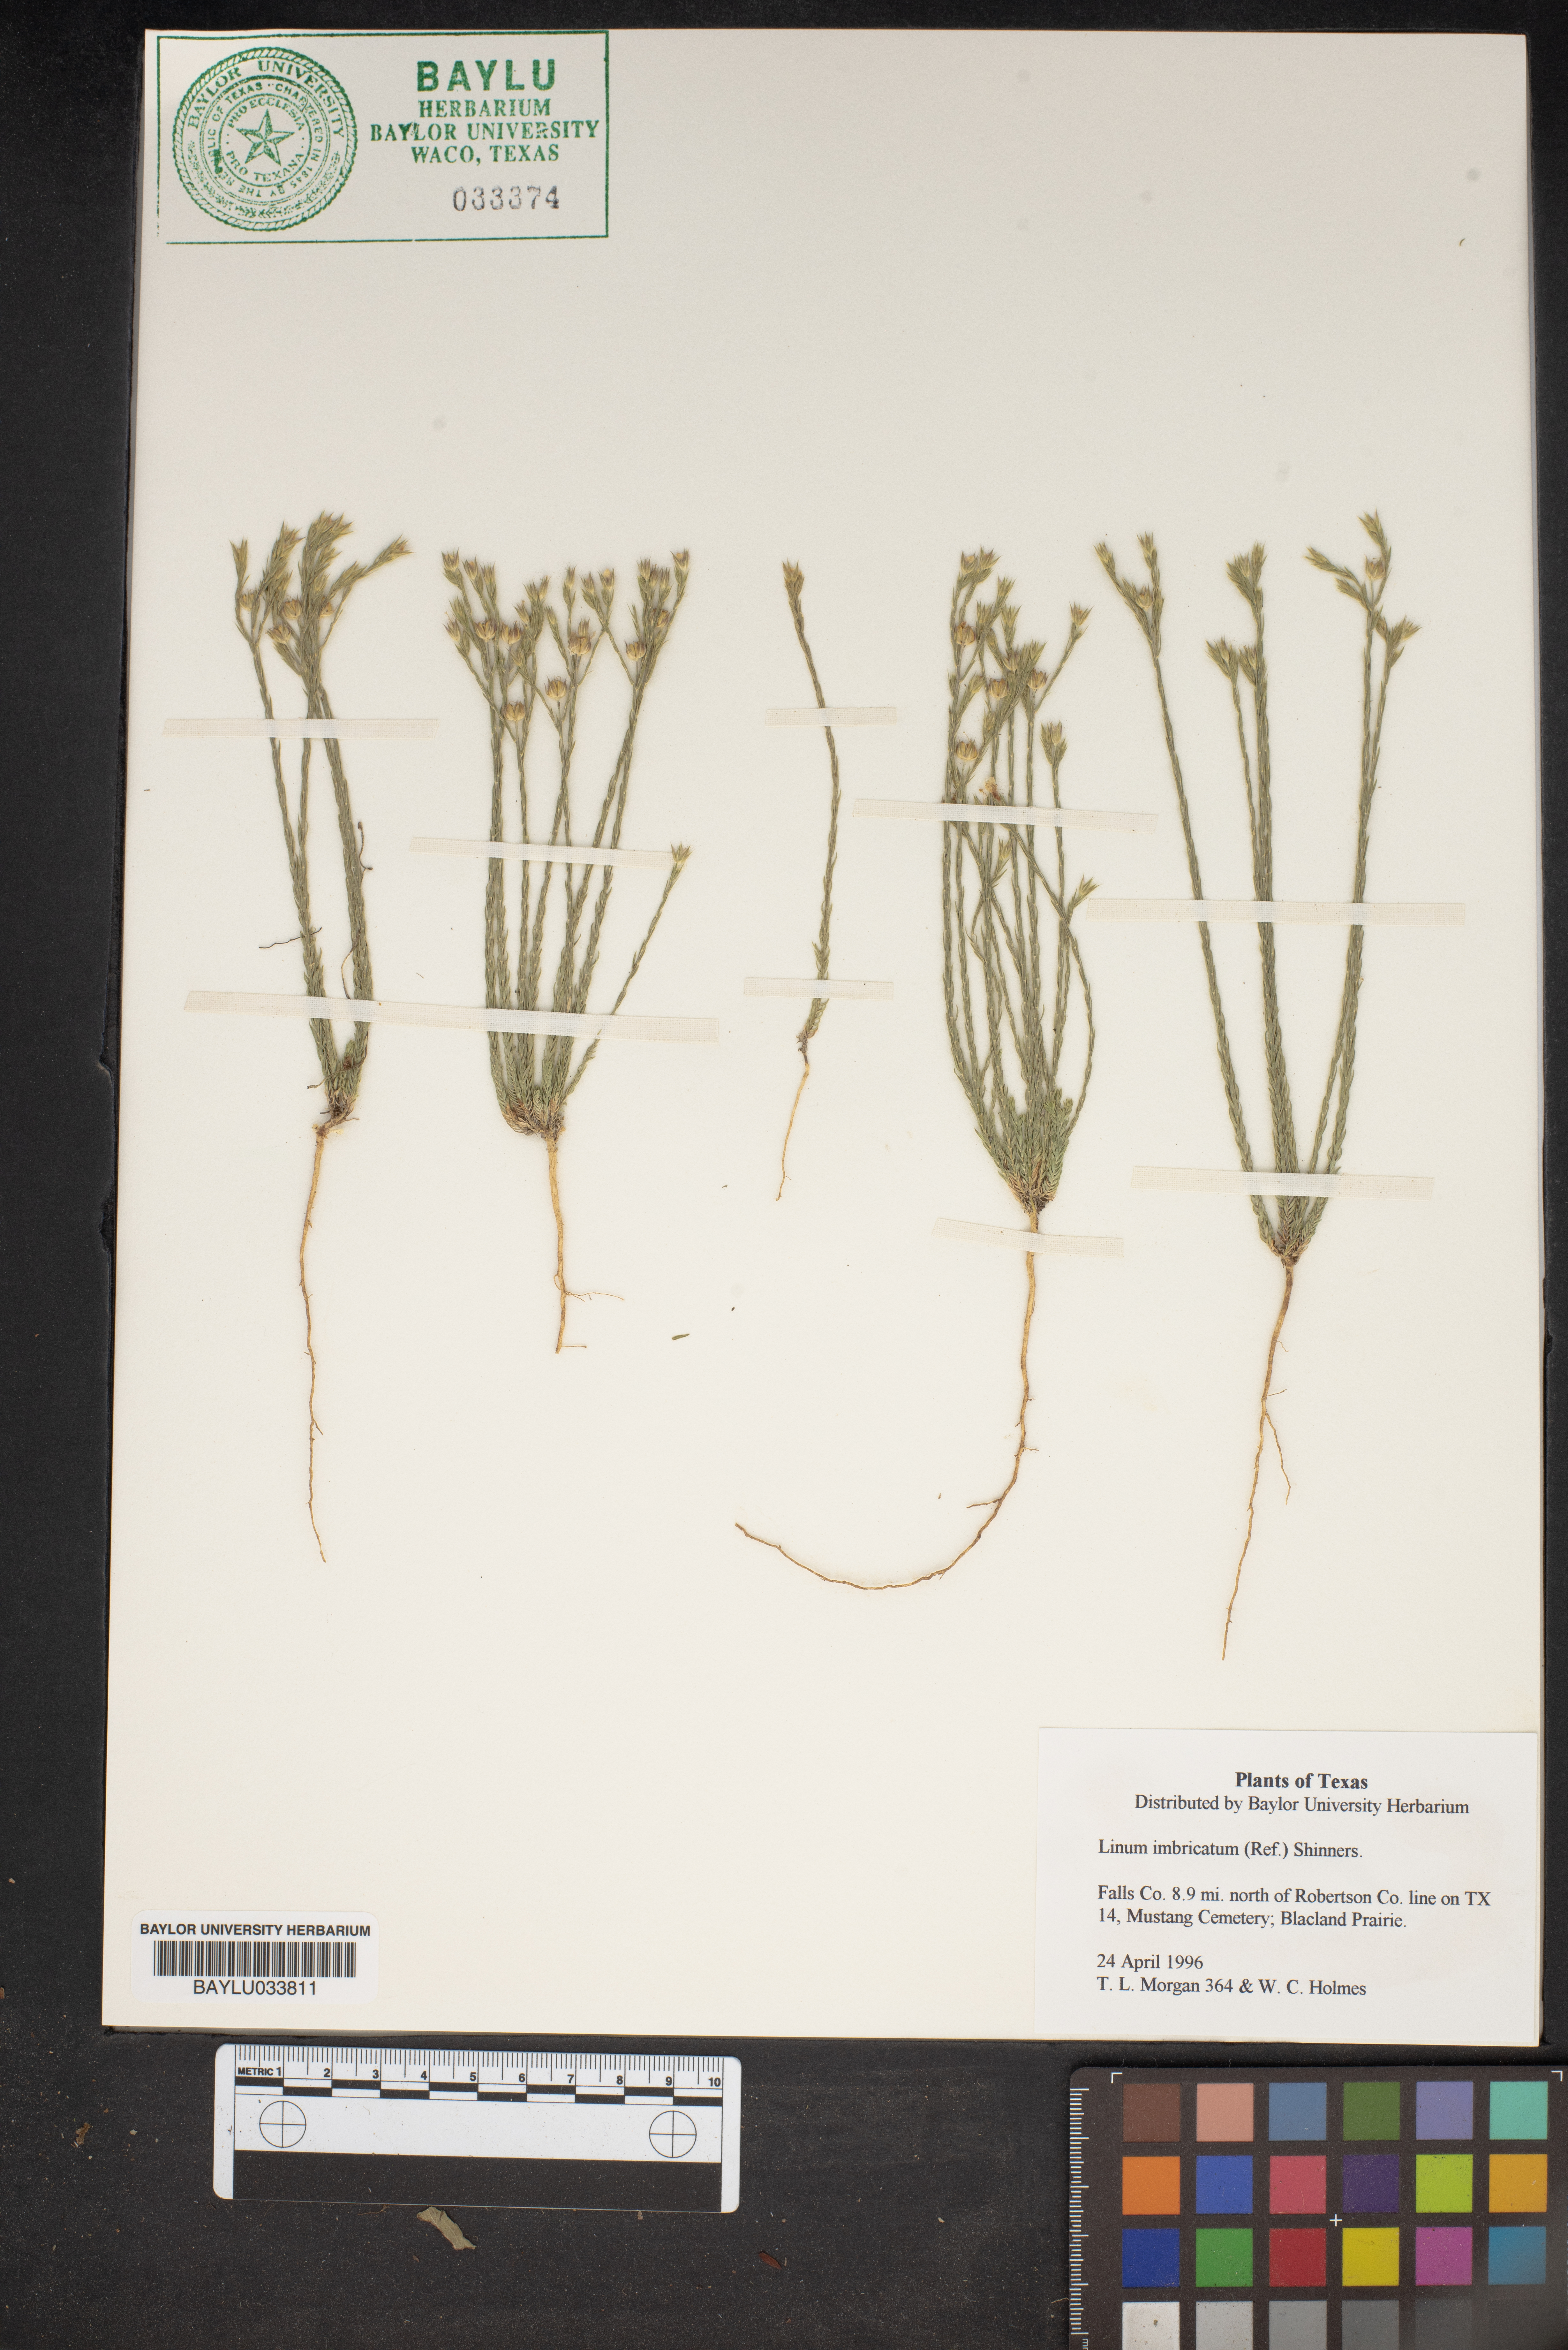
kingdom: Plantae
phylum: Tracheophyta
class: Magnoliopsida
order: Malpighiales
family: Linaceae
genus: Linum
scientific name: Linum imbricatum
